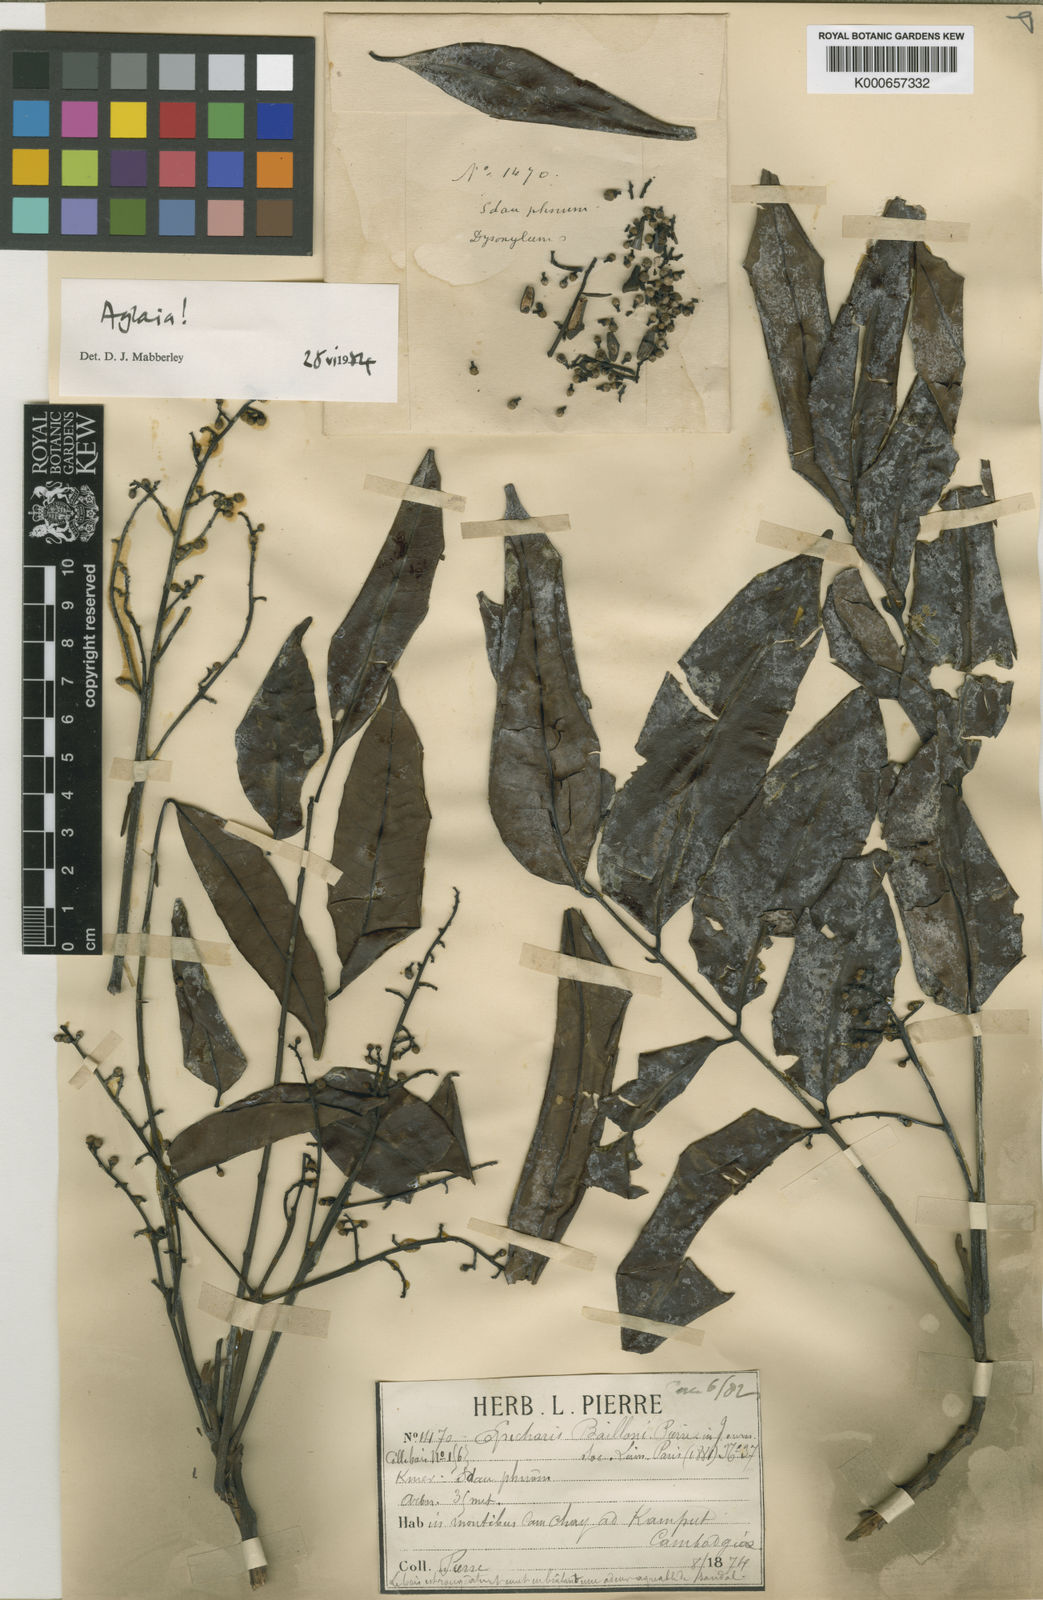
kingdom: Plantae
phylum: Tracheophyta
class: Magnoliopsida
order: Sapindales
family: Meliaceae
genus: Aglaia
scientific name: Aglaia leptantha
